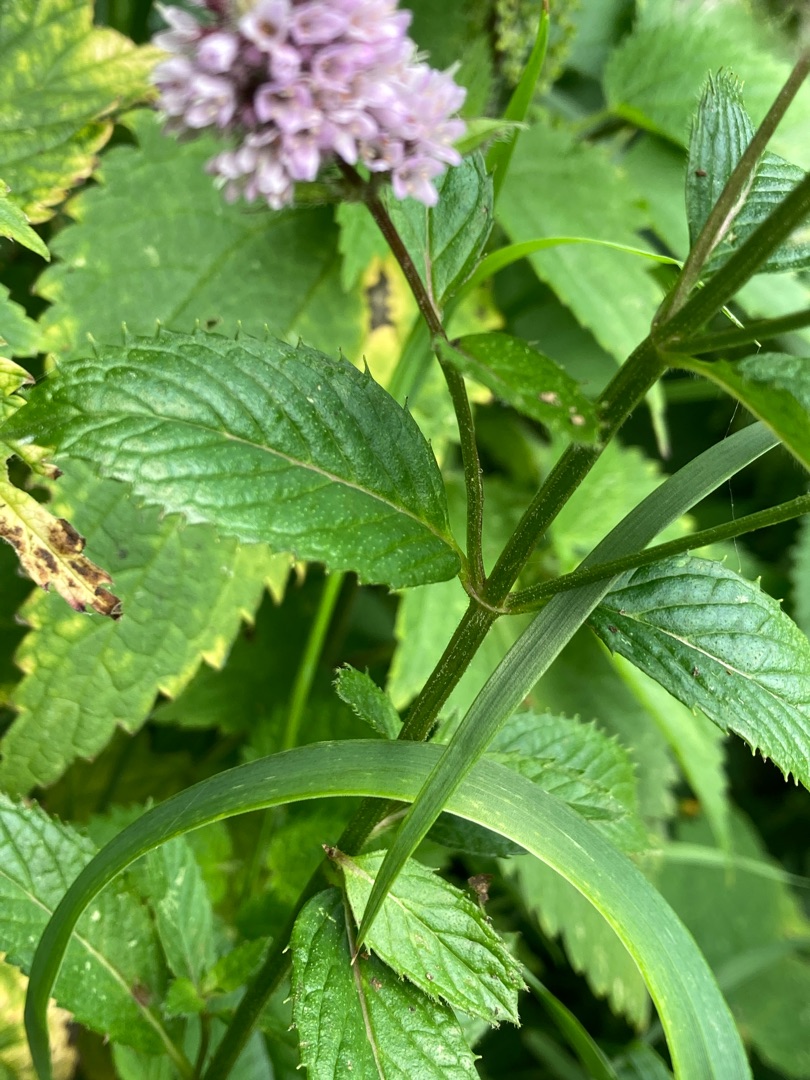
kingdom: Plantae
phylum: Tracheophyta
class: Magnoliopsida
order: Lamiales
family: Lamiaceae
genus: Mentha
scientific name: Mentha spicata
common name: Grøn mynte
